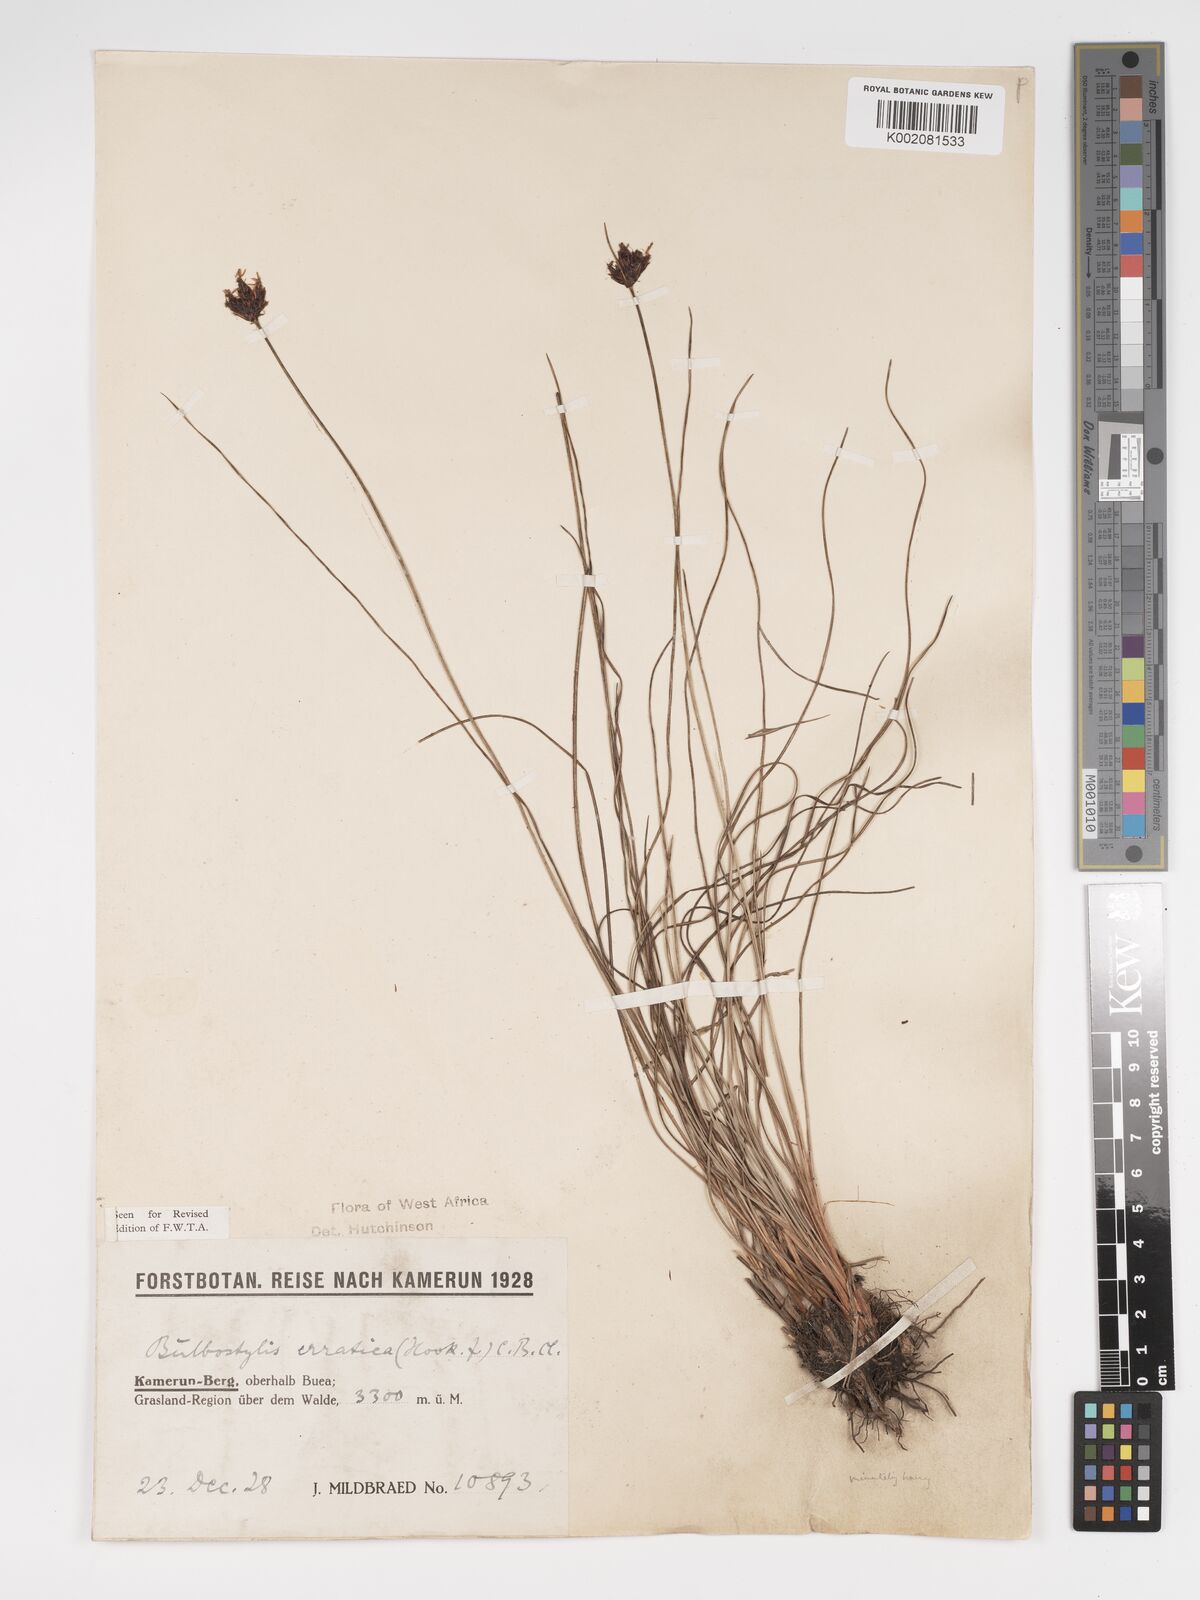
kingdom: Plantae
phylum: Tracheophyta
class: Liliopsida
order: Poales
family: Cyperaceae
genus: Bulbostylis
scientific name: Bulbostylis schoenoides
